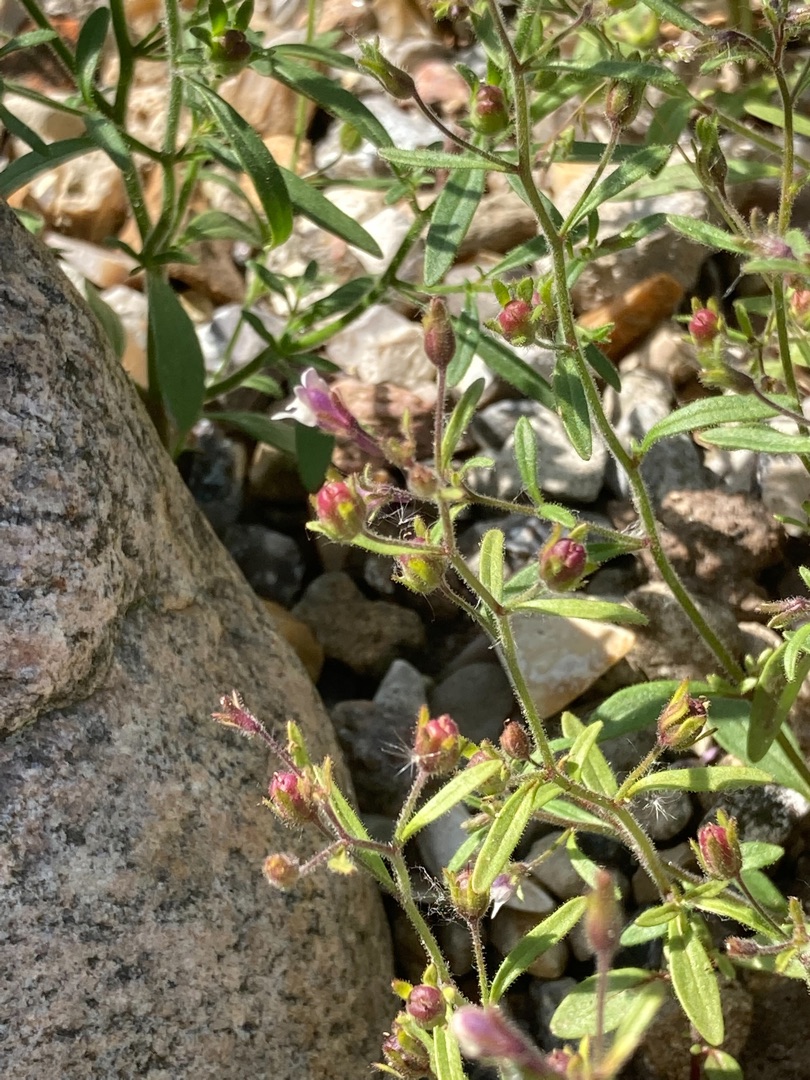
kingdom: Plantae
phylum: Tracheophyta
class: Magnoliopsida
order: Lamiales
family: Plantaginaceae
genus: Chaenorhinum
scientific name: Chaenorhinum minus
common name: Liden torskemund
